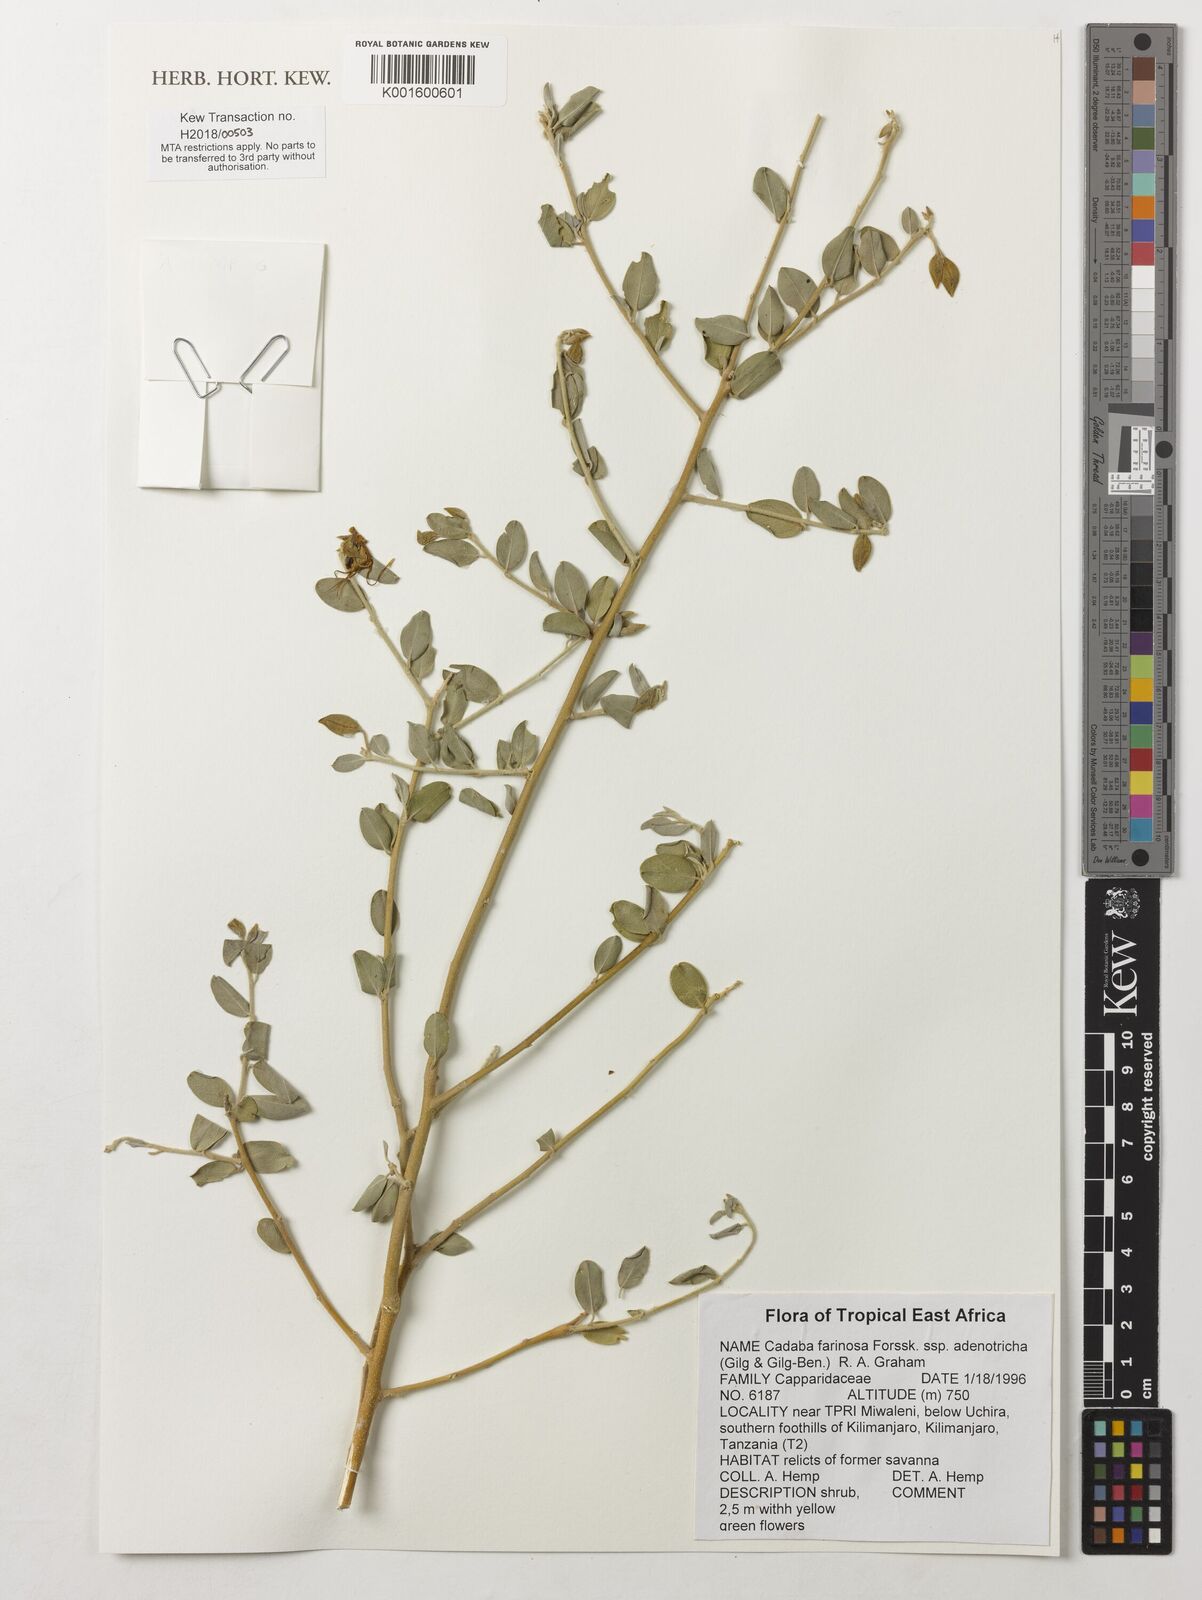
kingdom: Plantae
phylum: Tracheophyta
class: Magnoliopsida
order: Brassicales
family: Capparaceae
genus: Cadaba
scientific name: Cadaba farinosa
